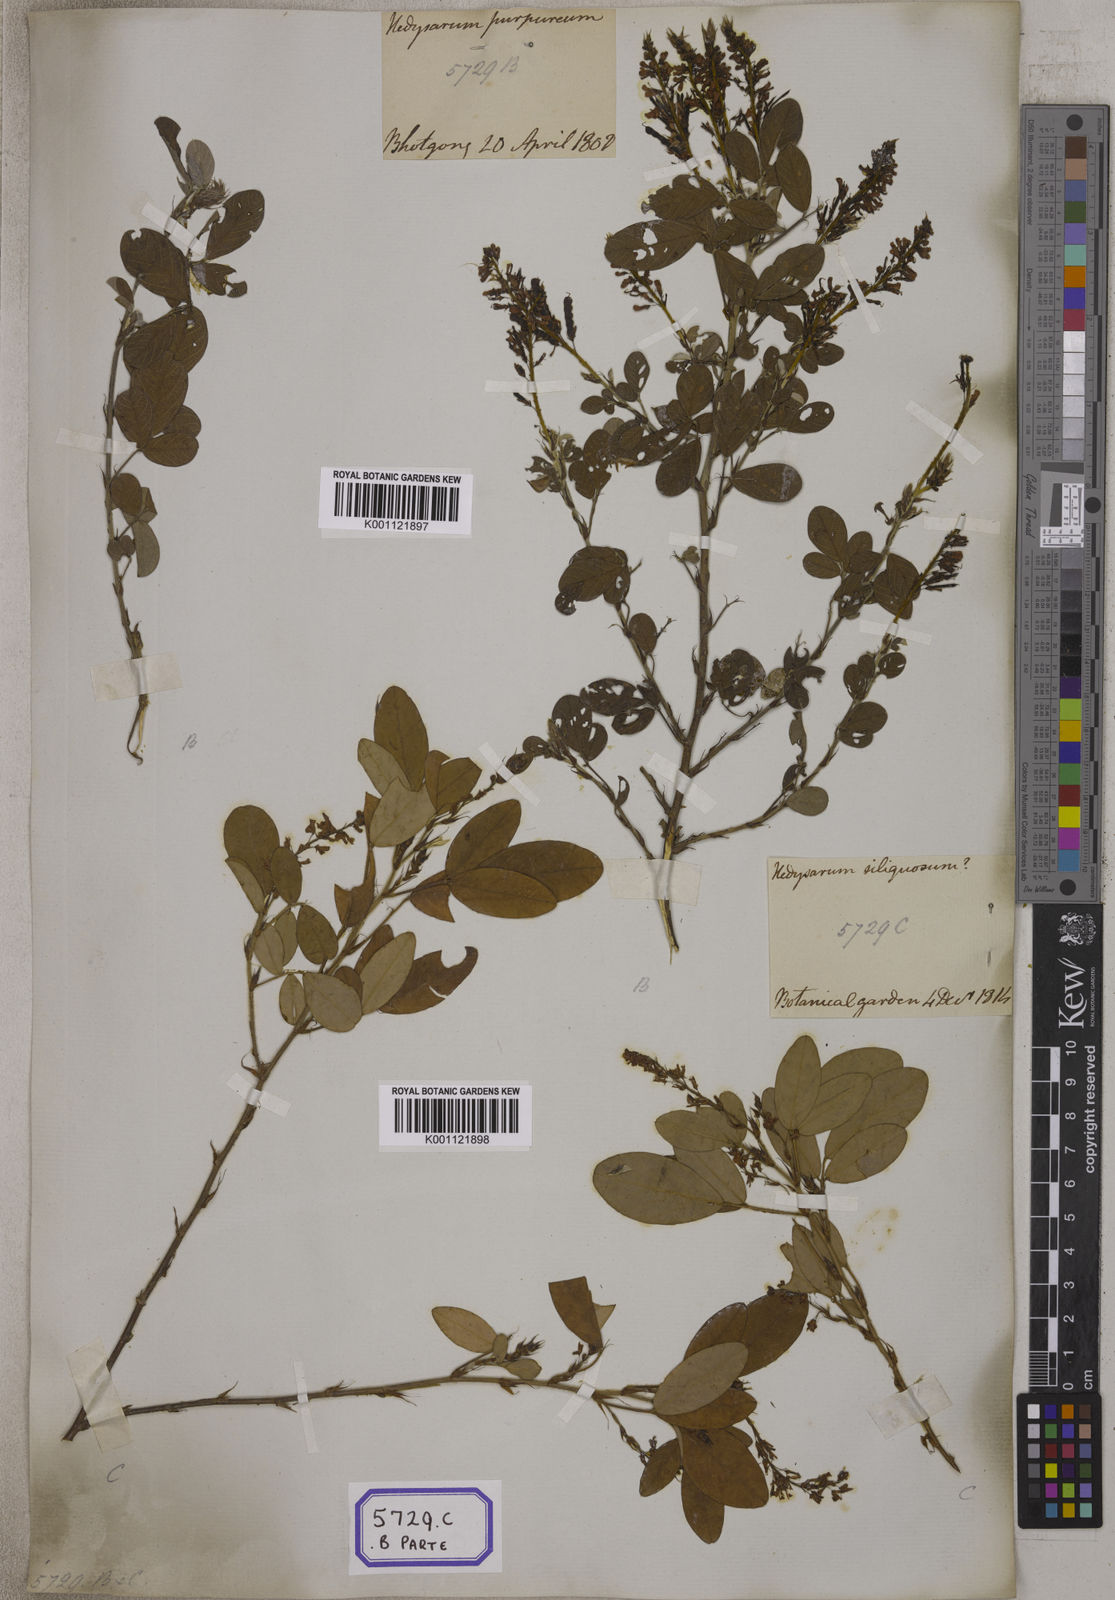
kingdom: Plantae
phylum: Tracheophyta
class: Magnoliopsida
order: Fabales
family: Fabaceae
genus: Desmodium
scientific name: Desmodium
